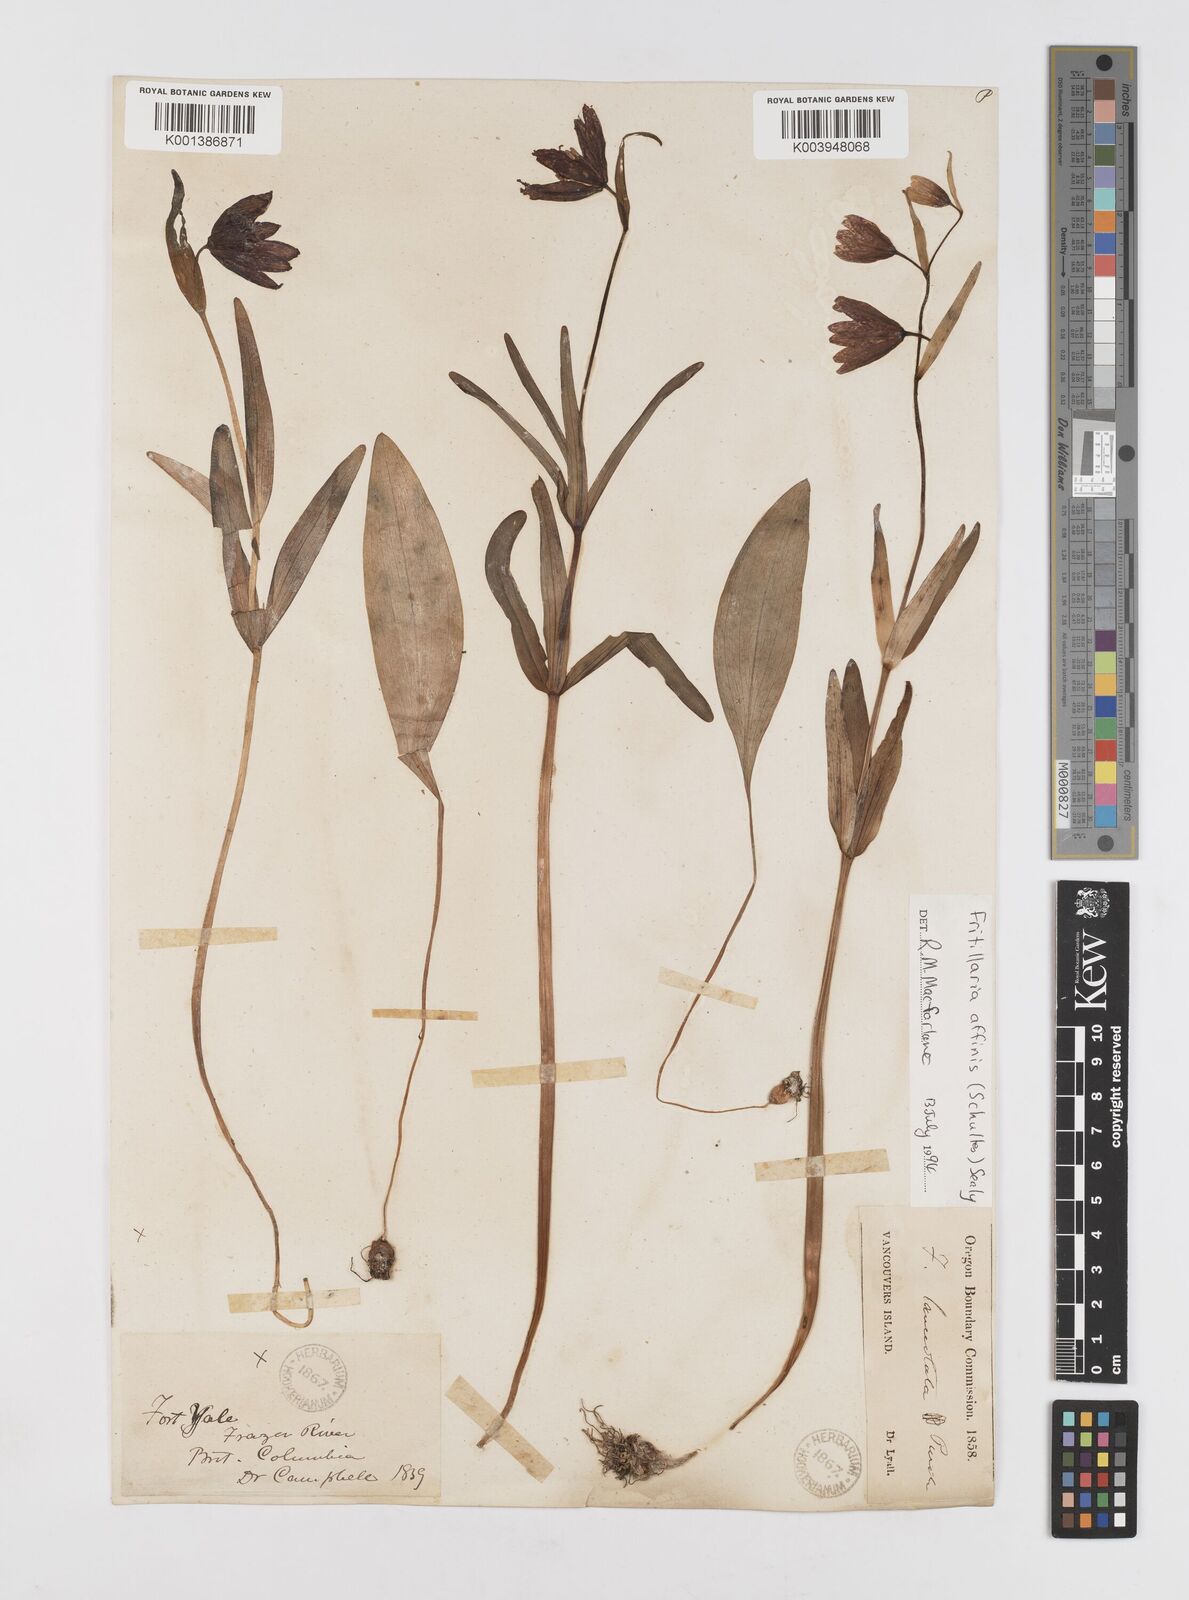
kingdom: Plantae
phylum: Tracheophyta
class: Liliopsida
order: Liliales
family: Liliaceae
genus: Fritillaria
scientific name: Fritillaria affinis
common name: Ojai fritillary
